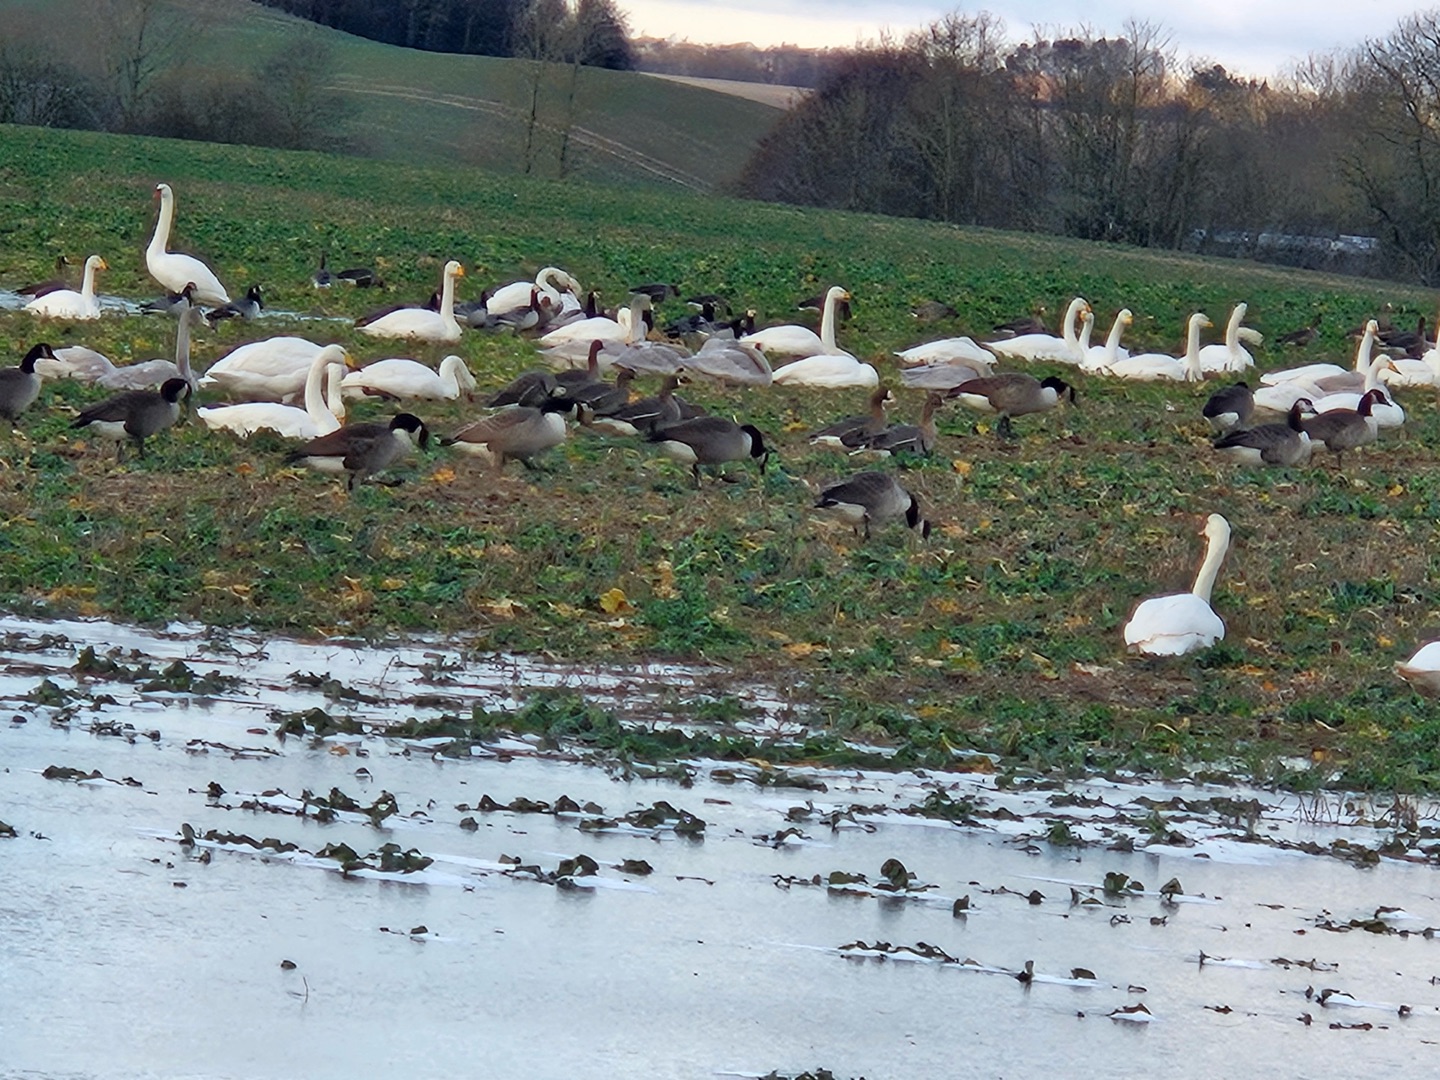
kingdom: Animalia
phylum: Chordata
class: Aves
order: Anseriformes
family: Anatidae
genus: Branta
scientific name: Branta canadensis
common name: Canadagås
